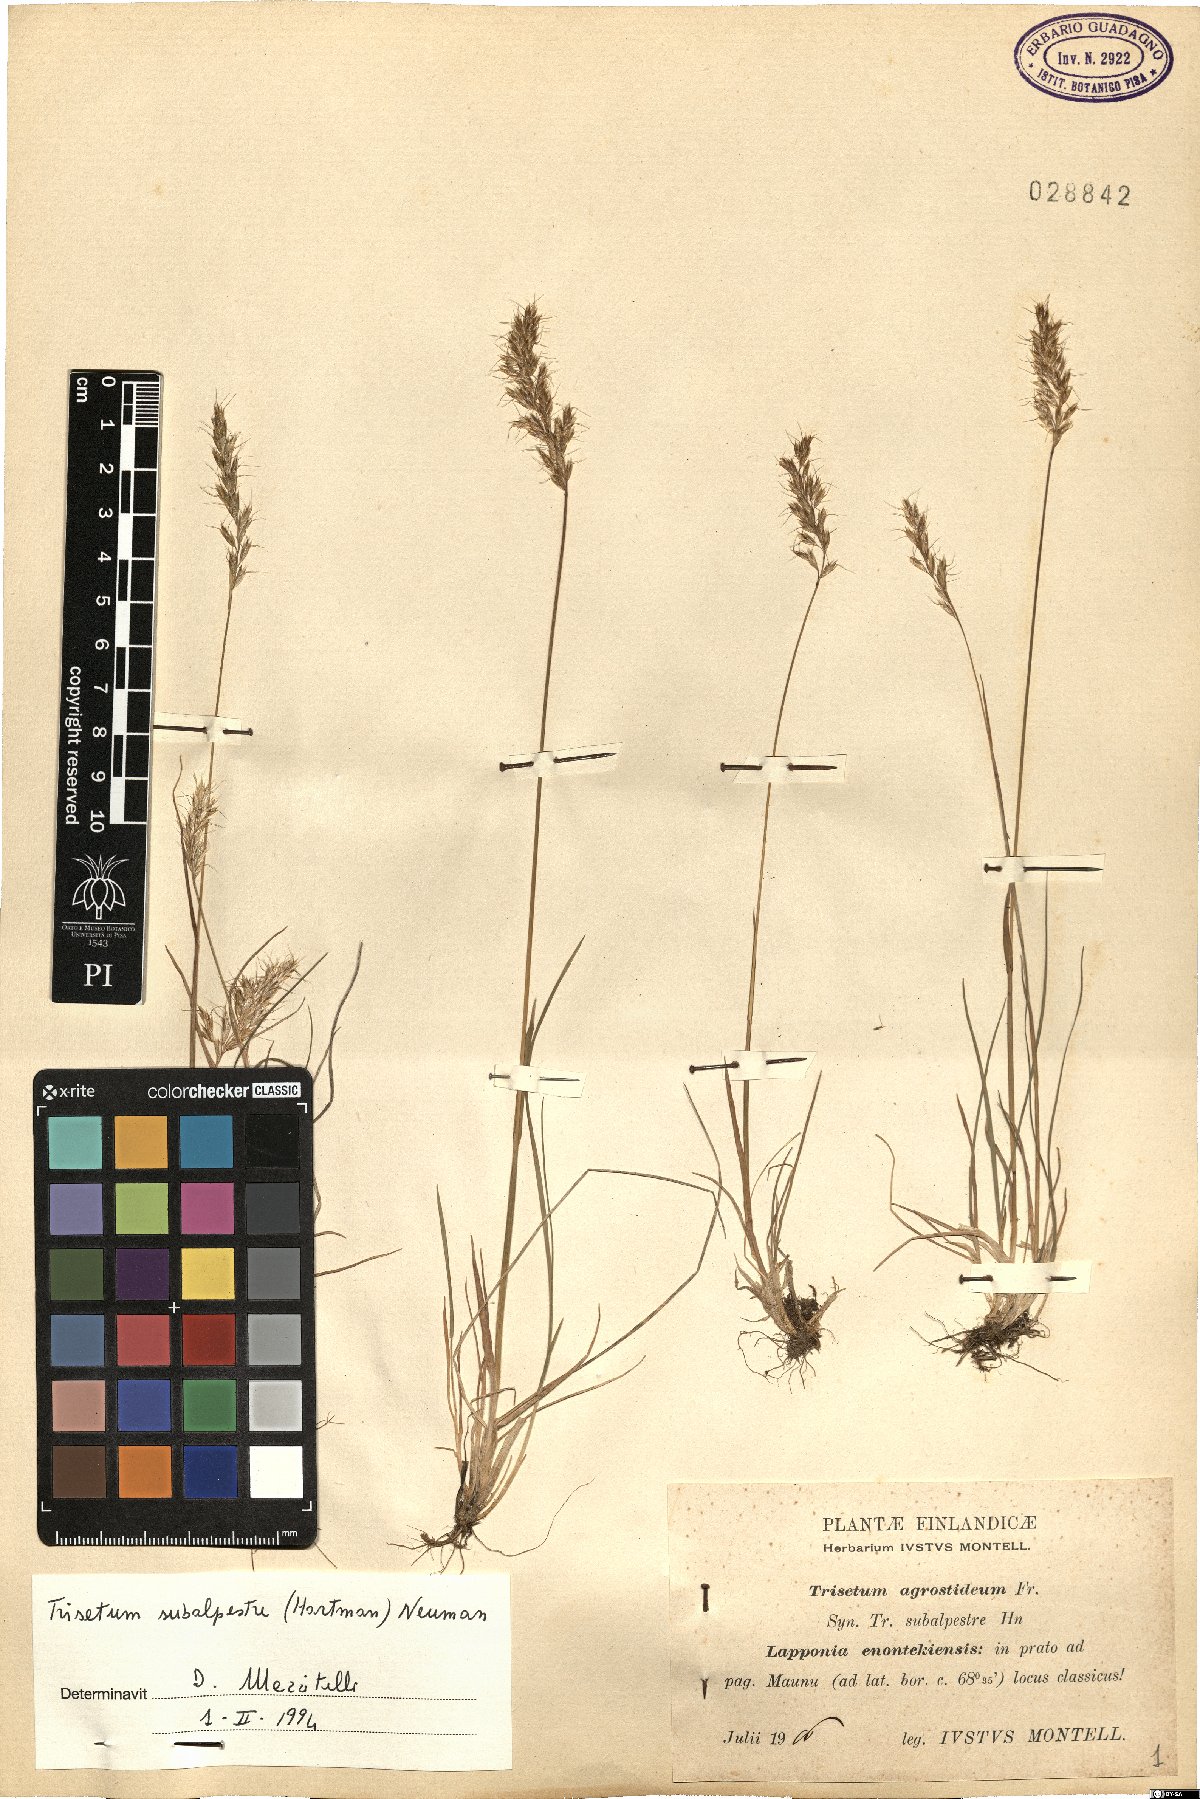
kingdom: Plantae
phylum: Tracheophyta
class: Liliopsida
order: Poales
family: Poaceae
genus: Koeleria
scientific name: Koeleria subalpestris
